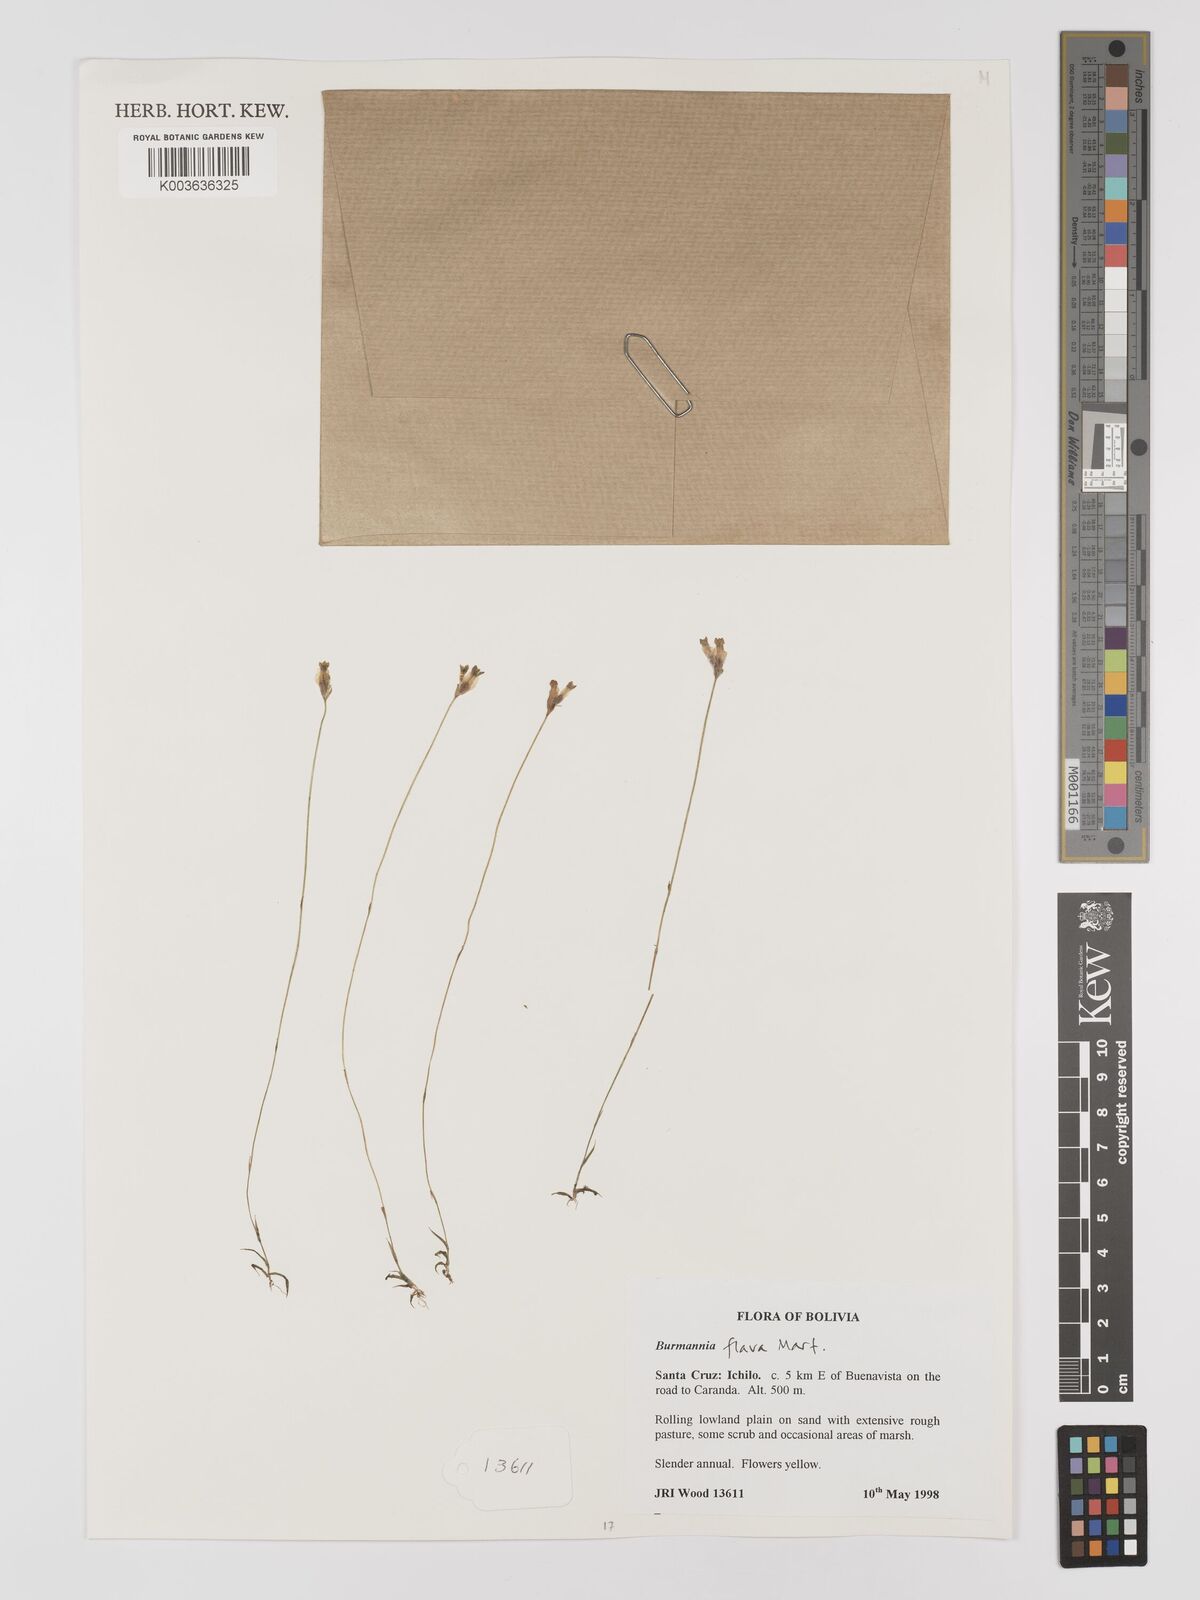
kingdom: Plantae
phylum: Tracheophyta
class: Liliopsida
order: Dioscoreales
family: Burmanniaceae
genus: Burmannia
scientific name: Burmannia flava
